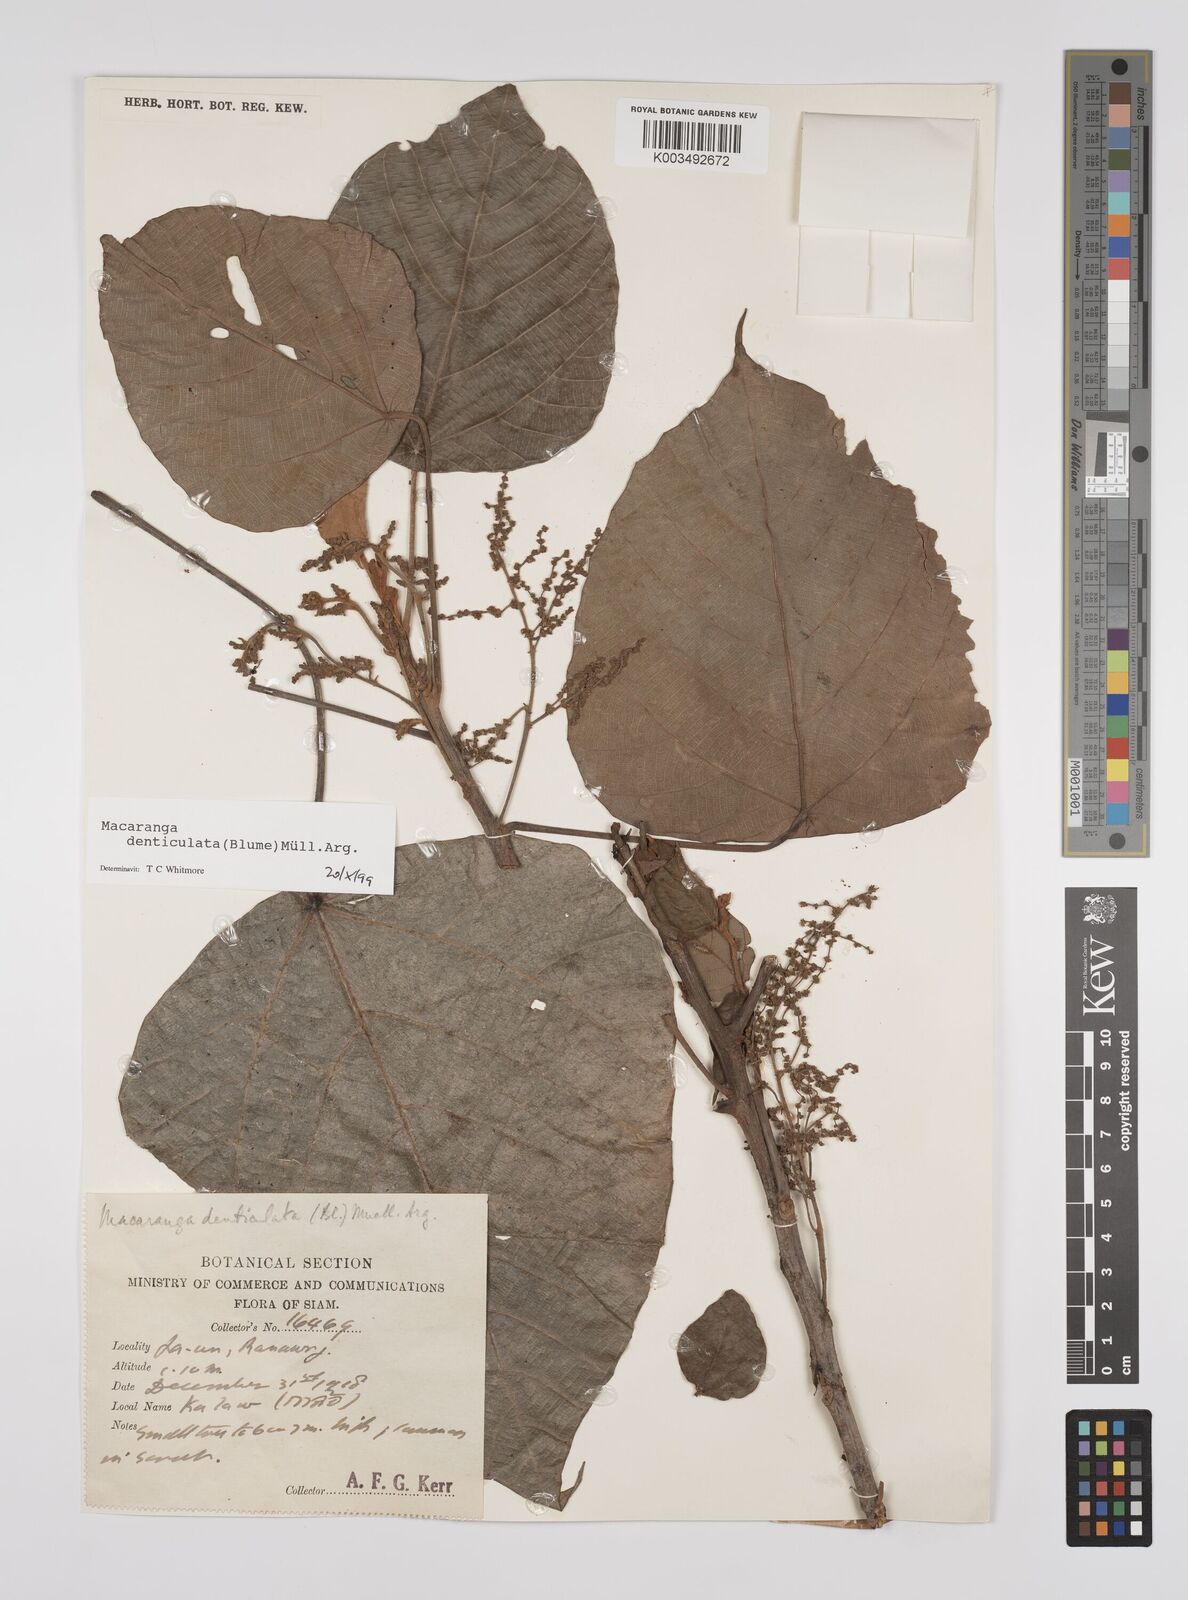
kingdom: Plantae
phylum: Tracheophyta
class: Magnoliopsida
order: Malpighiales
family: Euphorbiaceae
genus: Macaranga
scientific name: Macaranga denticulata
